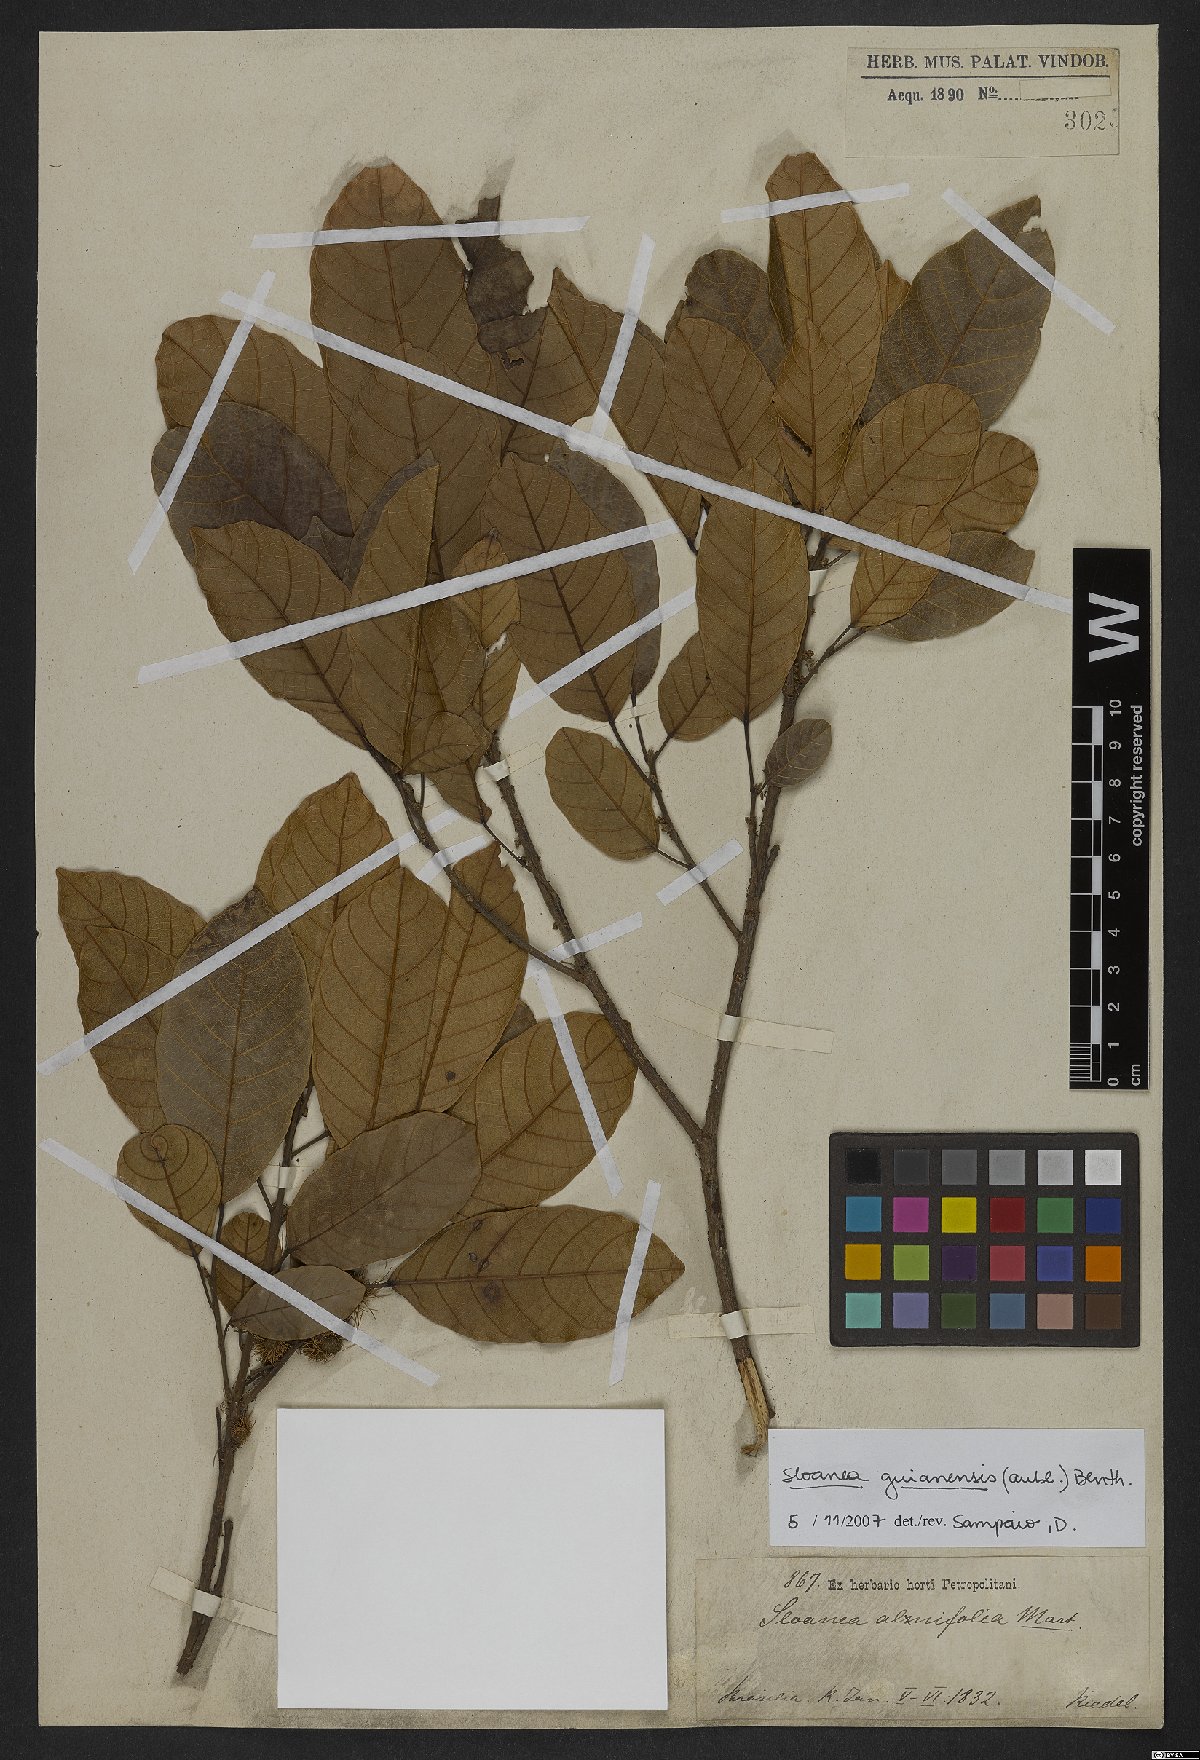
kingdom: Plantae
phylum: Tracheophyta
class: Magnoliopsida
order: Oxalidales
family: Elaeocarpaceae
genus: Sloanea
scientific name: Sloanea guianensis
